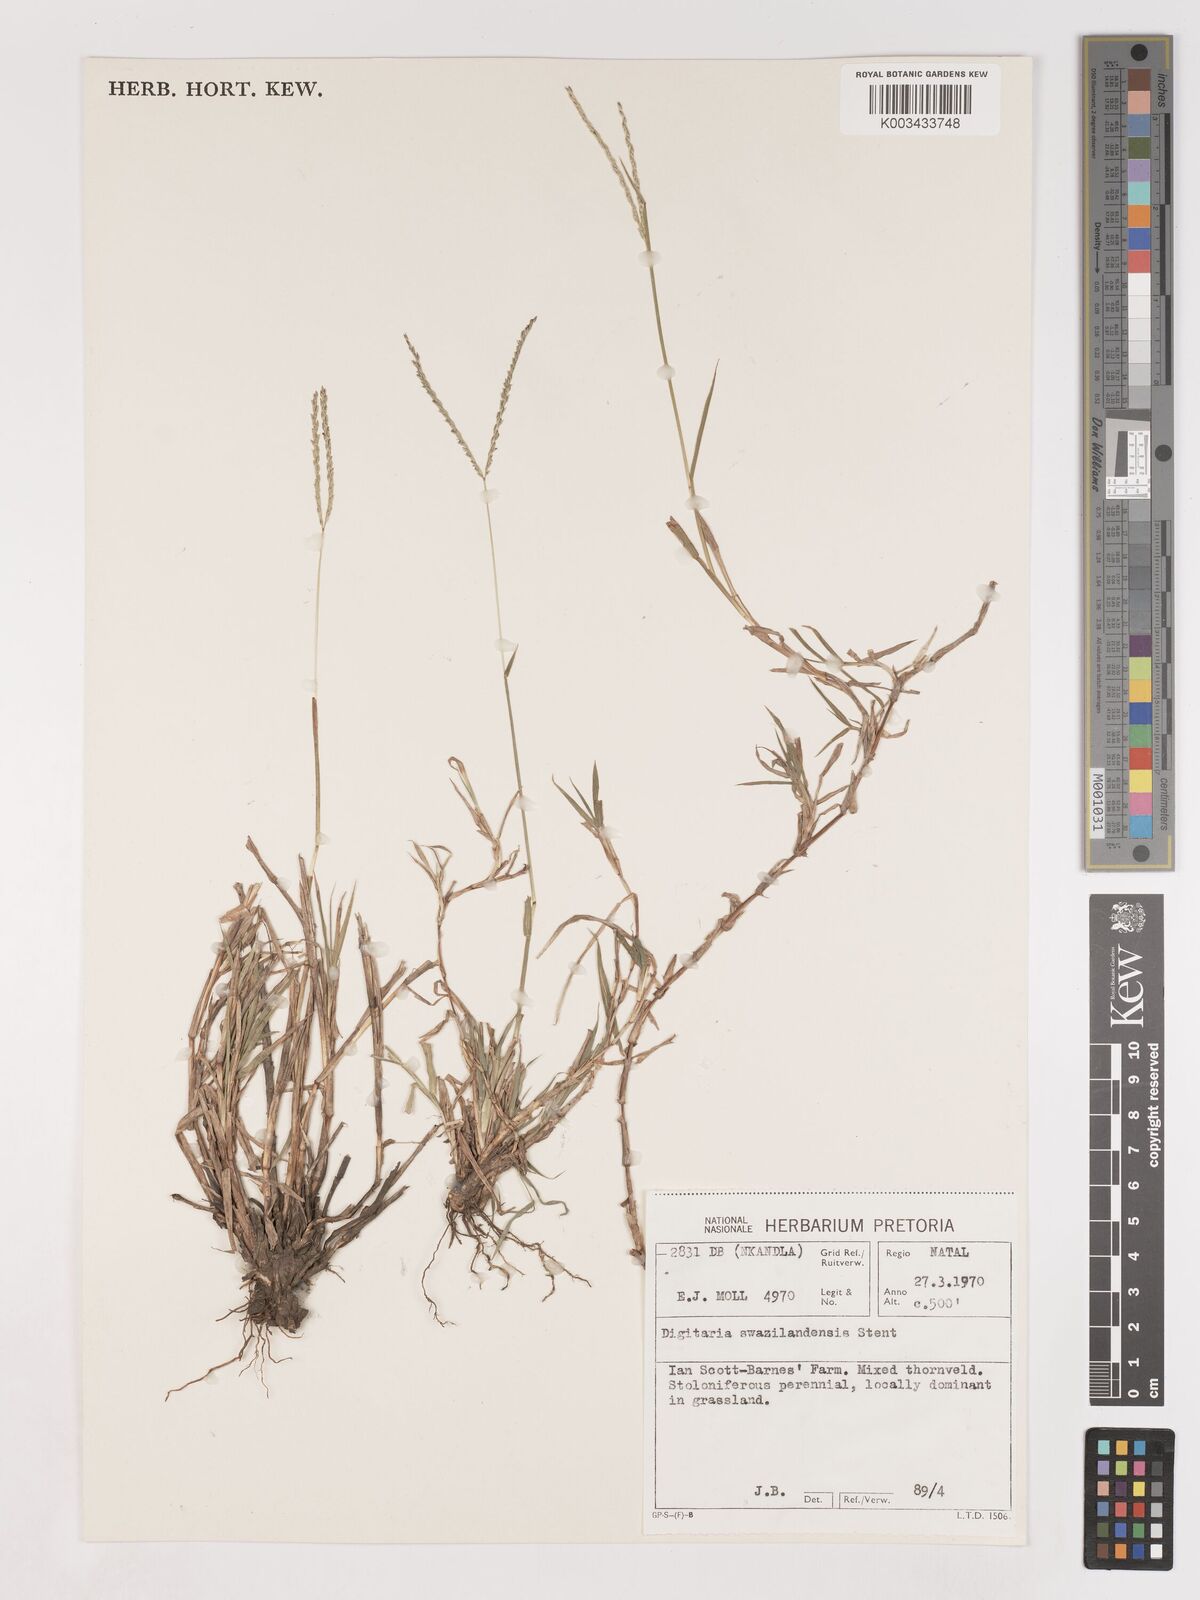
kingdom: Plantae
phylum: Tracheophyta
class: Liliopsida
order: Poales
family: Poaceae
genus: Digitaria
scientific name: Digitaria didactyla
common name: Blue couch
